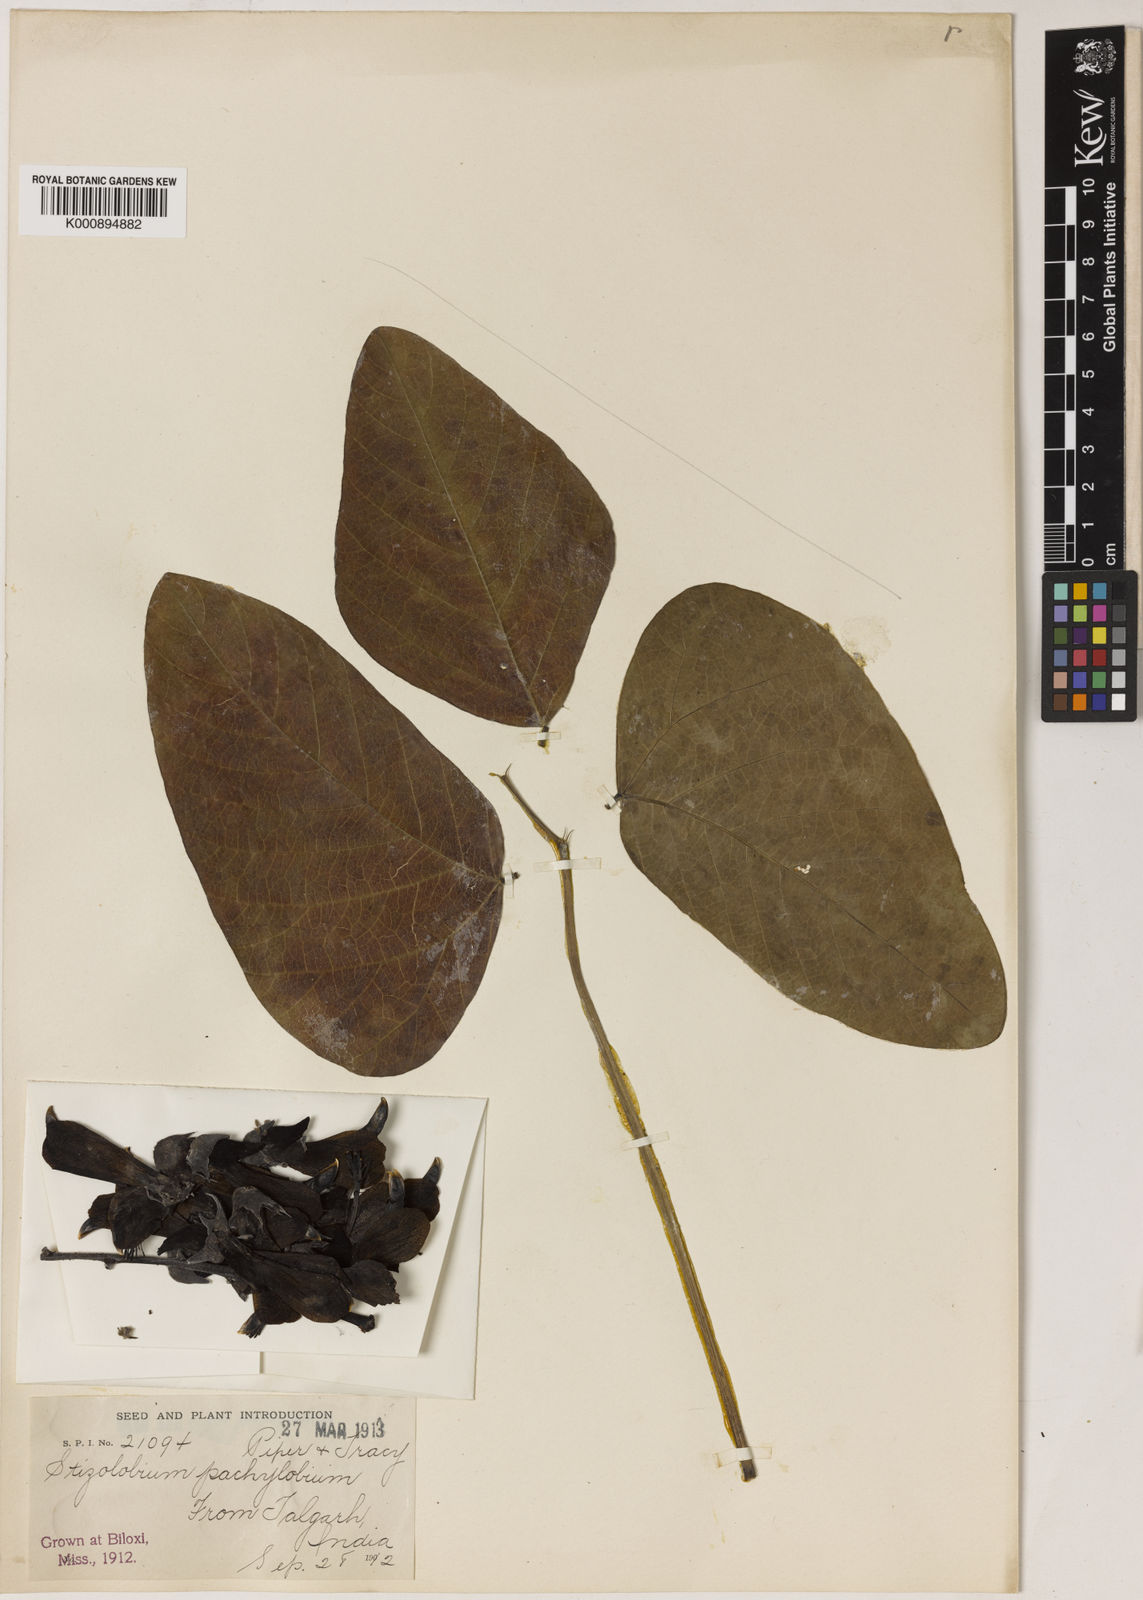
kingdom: Plantae
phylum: Tracheophyta
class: Magnoliopsida
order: Fabales
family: Fabaceae
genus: Mucuna
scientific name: Mucuna pruriens
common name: Cow-itch
